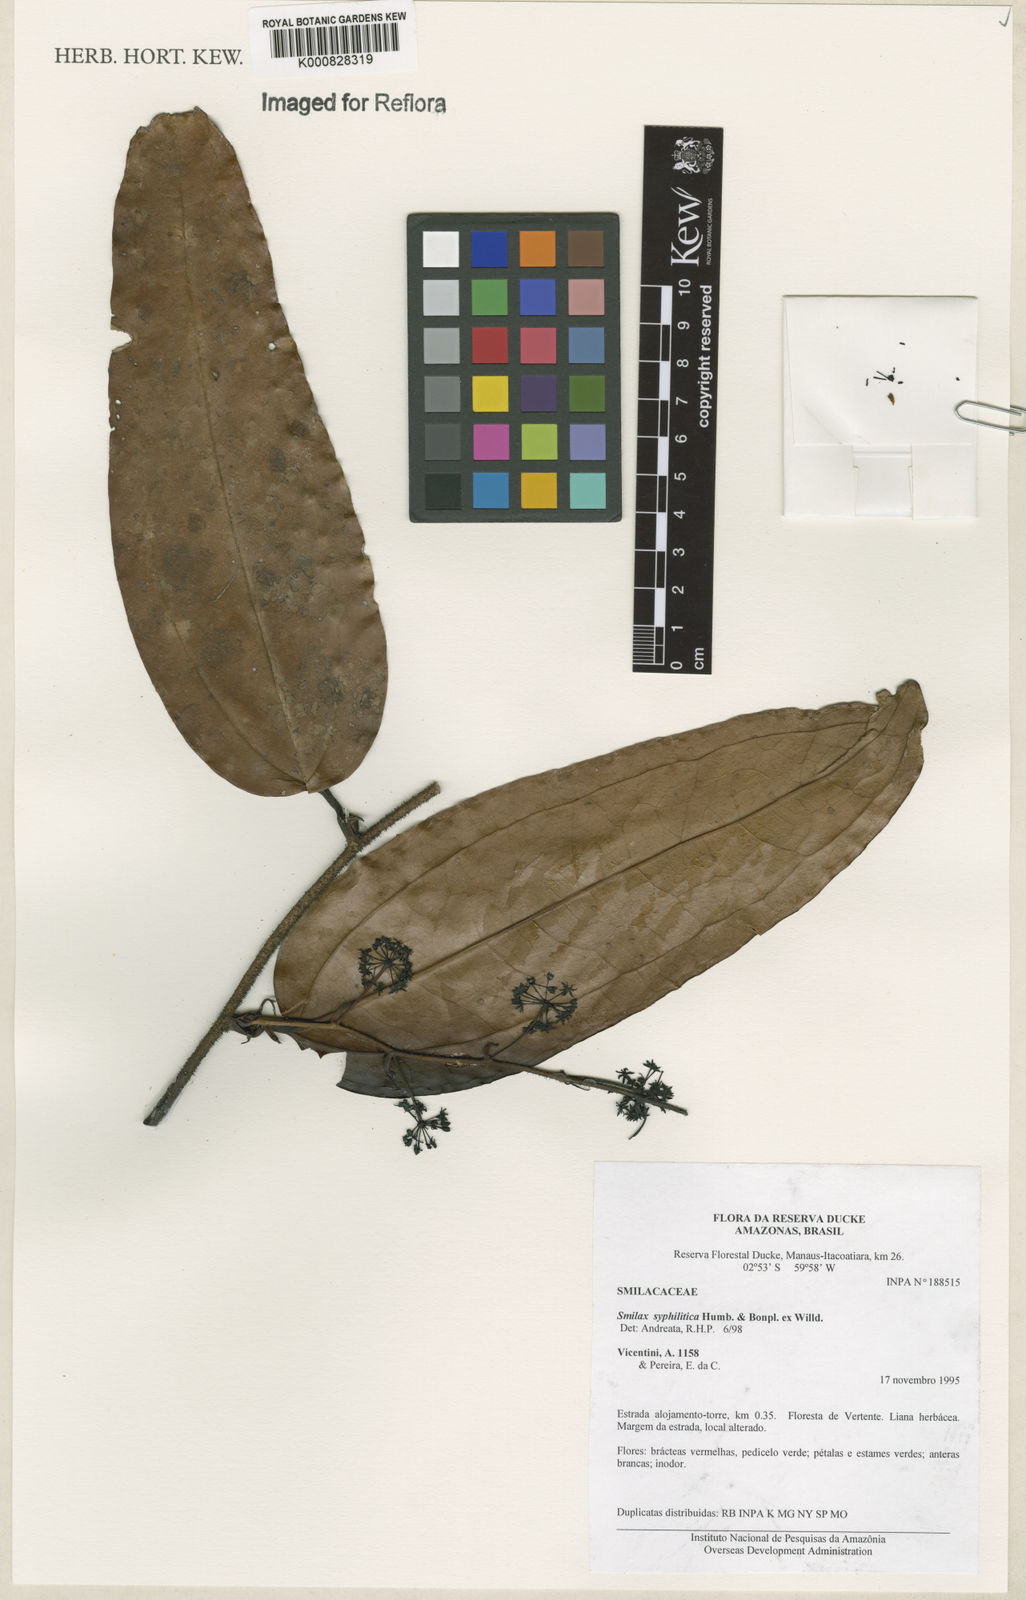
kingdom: Plantae
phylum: Tracheophyta
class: Liliopsida
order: Liliales
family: Smilacaceae
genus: Smilax
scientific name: Smilax siphilitica
